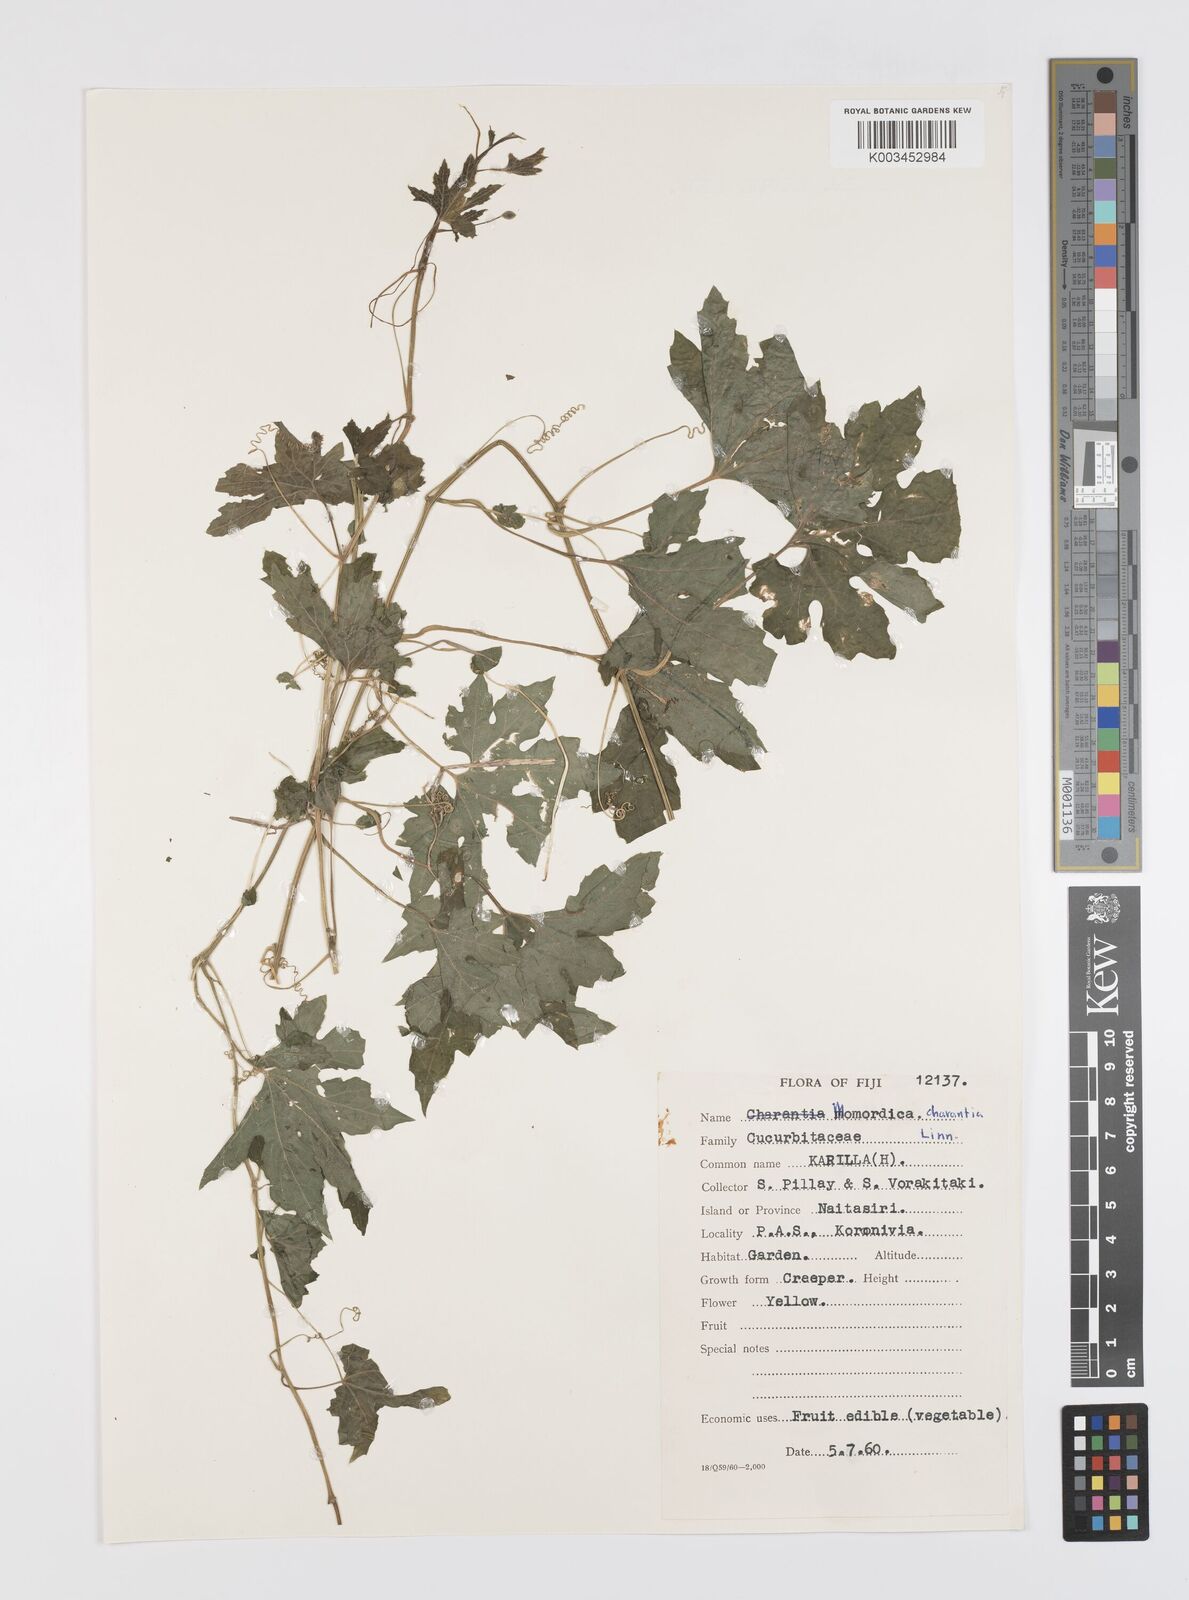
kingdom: Plantae
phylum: Tracheophyta
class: Magnoliopsida
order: Cucurbitales
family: Cucurbitaceae
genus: Momordica
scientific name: Momordica charantia
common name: Balsampear
